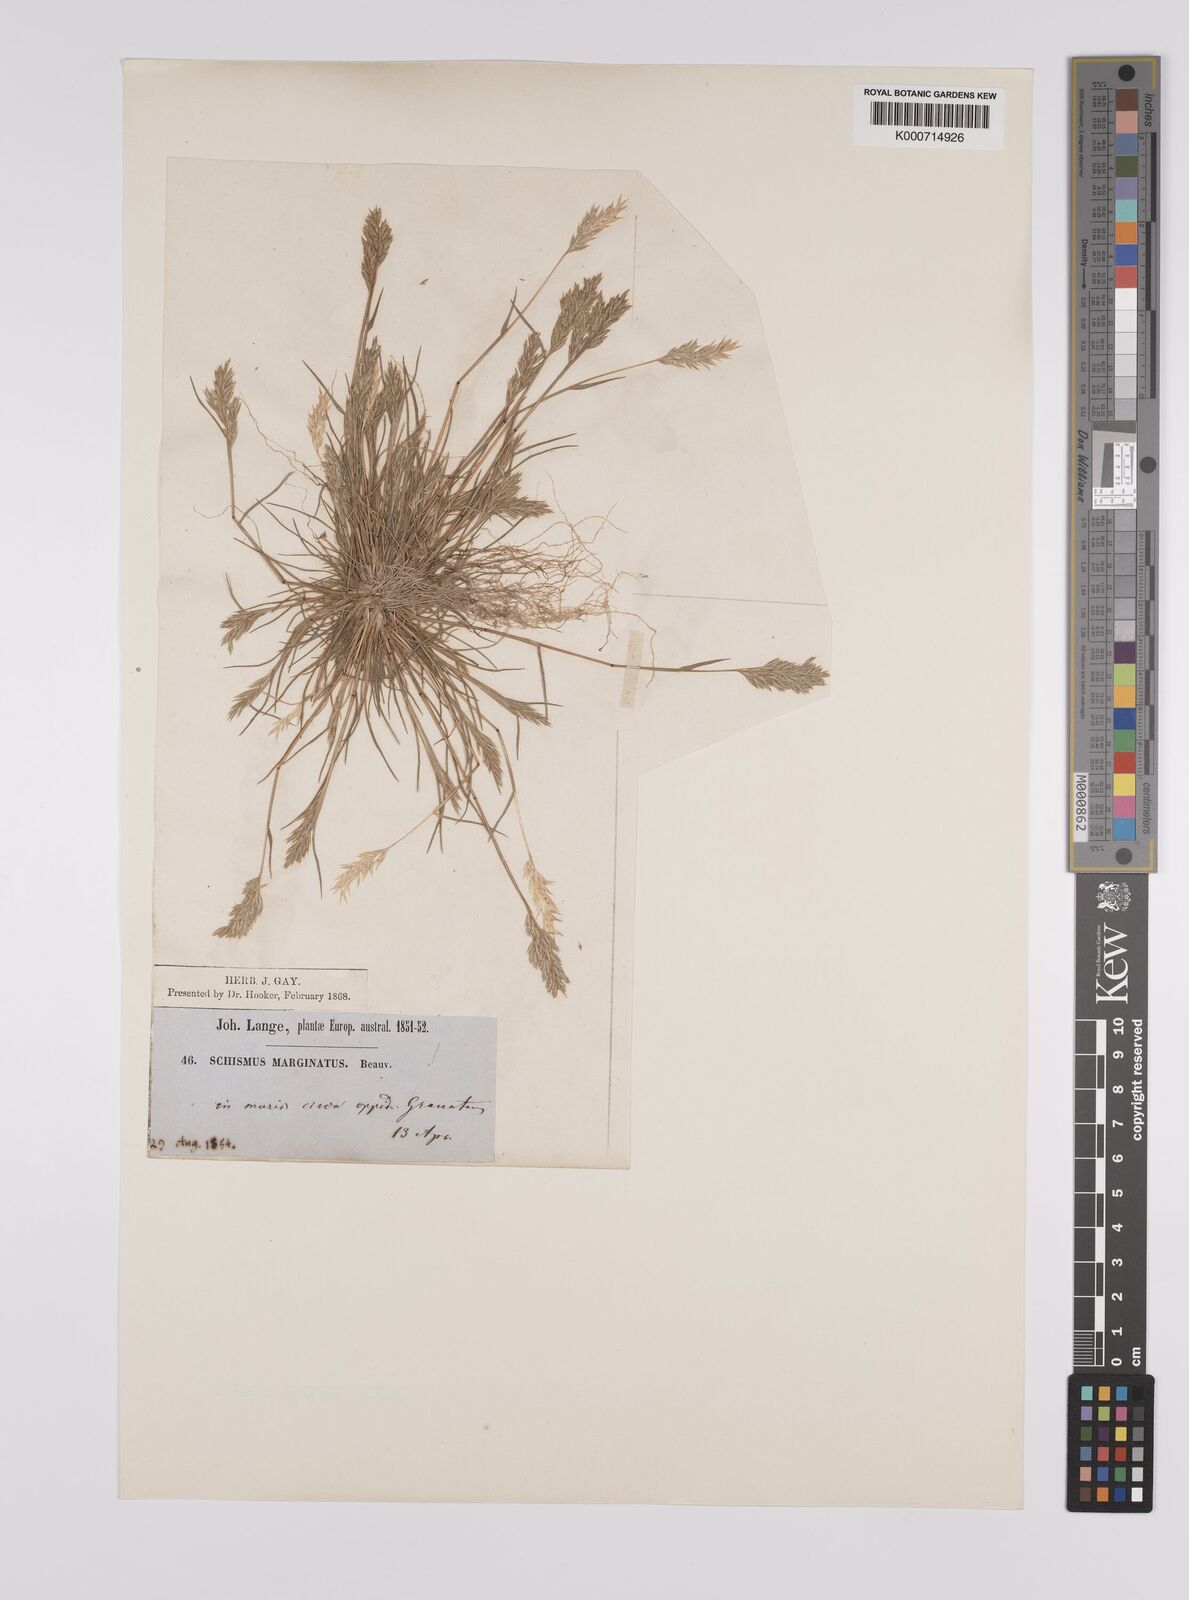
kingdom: Plantae
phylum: Tracheophyta
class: Liliopsida
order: Poales
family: Poaceae
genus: Schismus
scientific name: Schismus barbatus
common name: Kelch-grass
